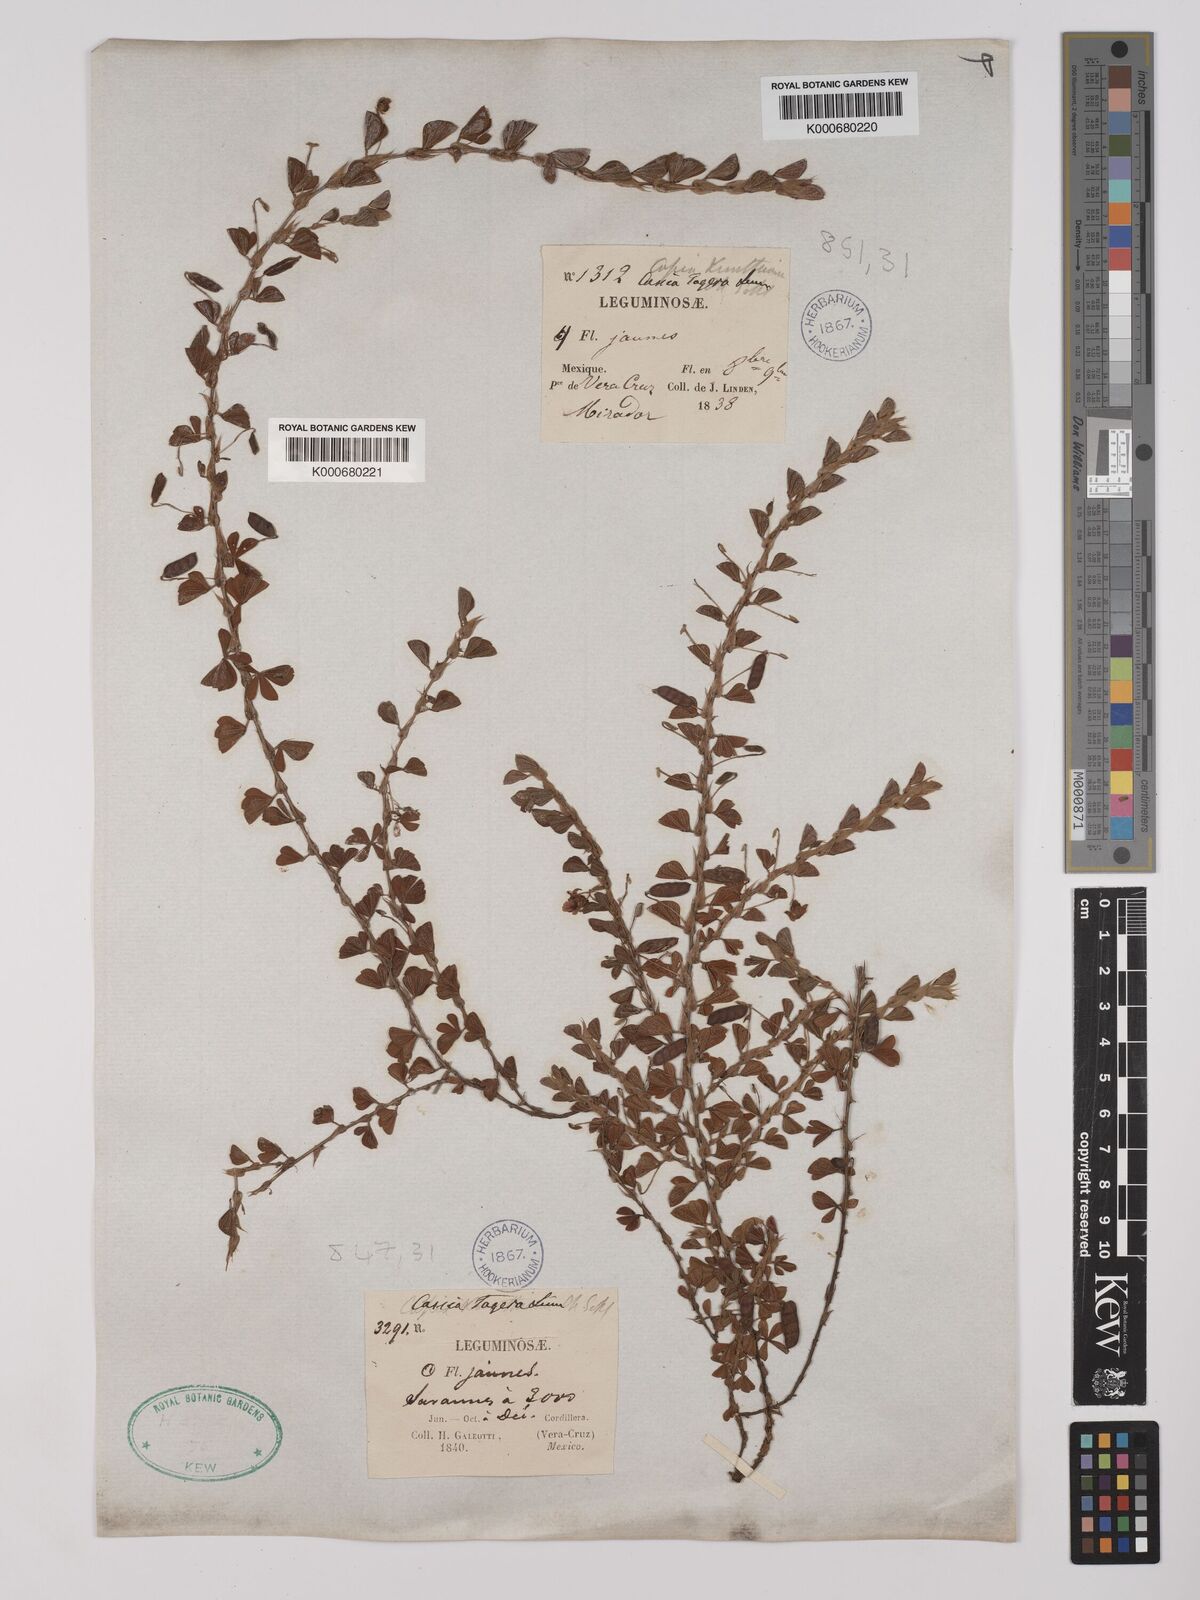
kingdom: Plantae
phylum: Tracheophyta
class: Magnoliopsida
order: Fabales
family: Fabaceae
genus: Chamaecrista
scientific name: Chamaecrista kunthiana
